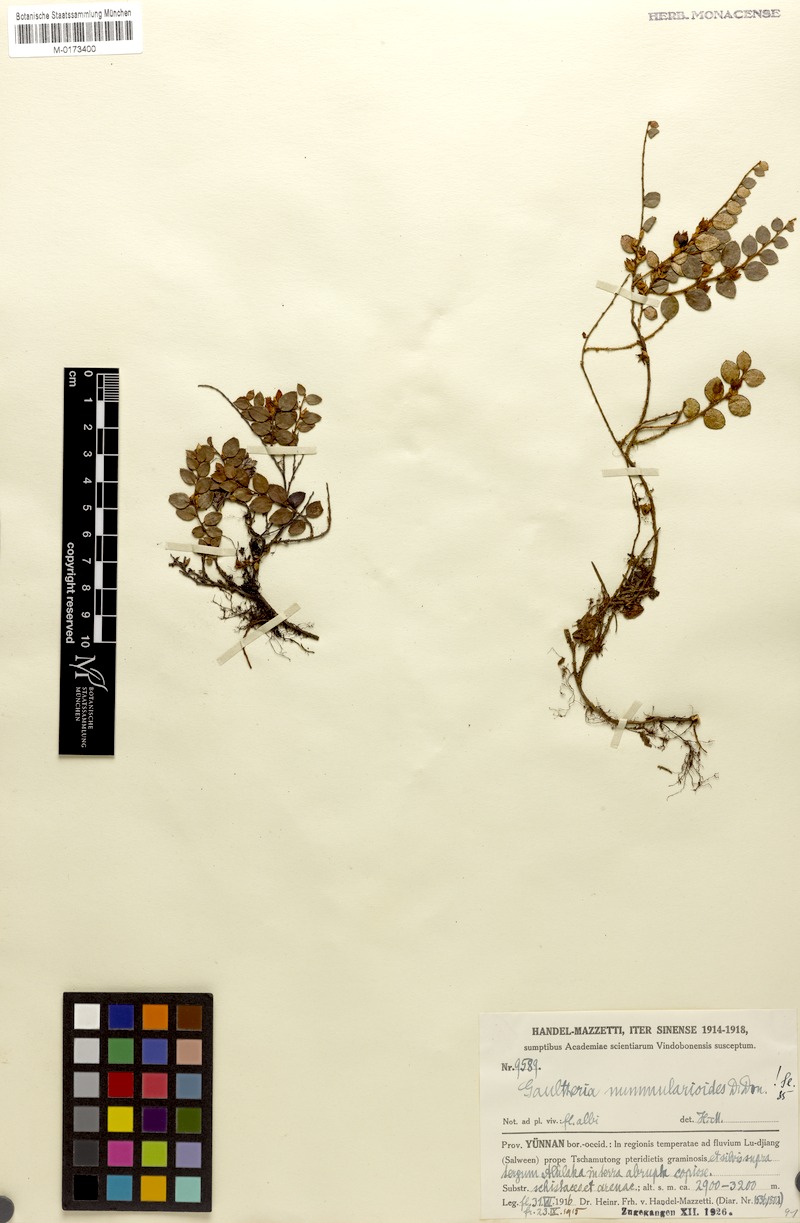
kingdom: Plantae
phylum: Tracheophyta
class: Magnoliopsida
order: Ericales
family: Ericaceae
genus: Gaultheria
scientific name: Gaultheria nummularioides
